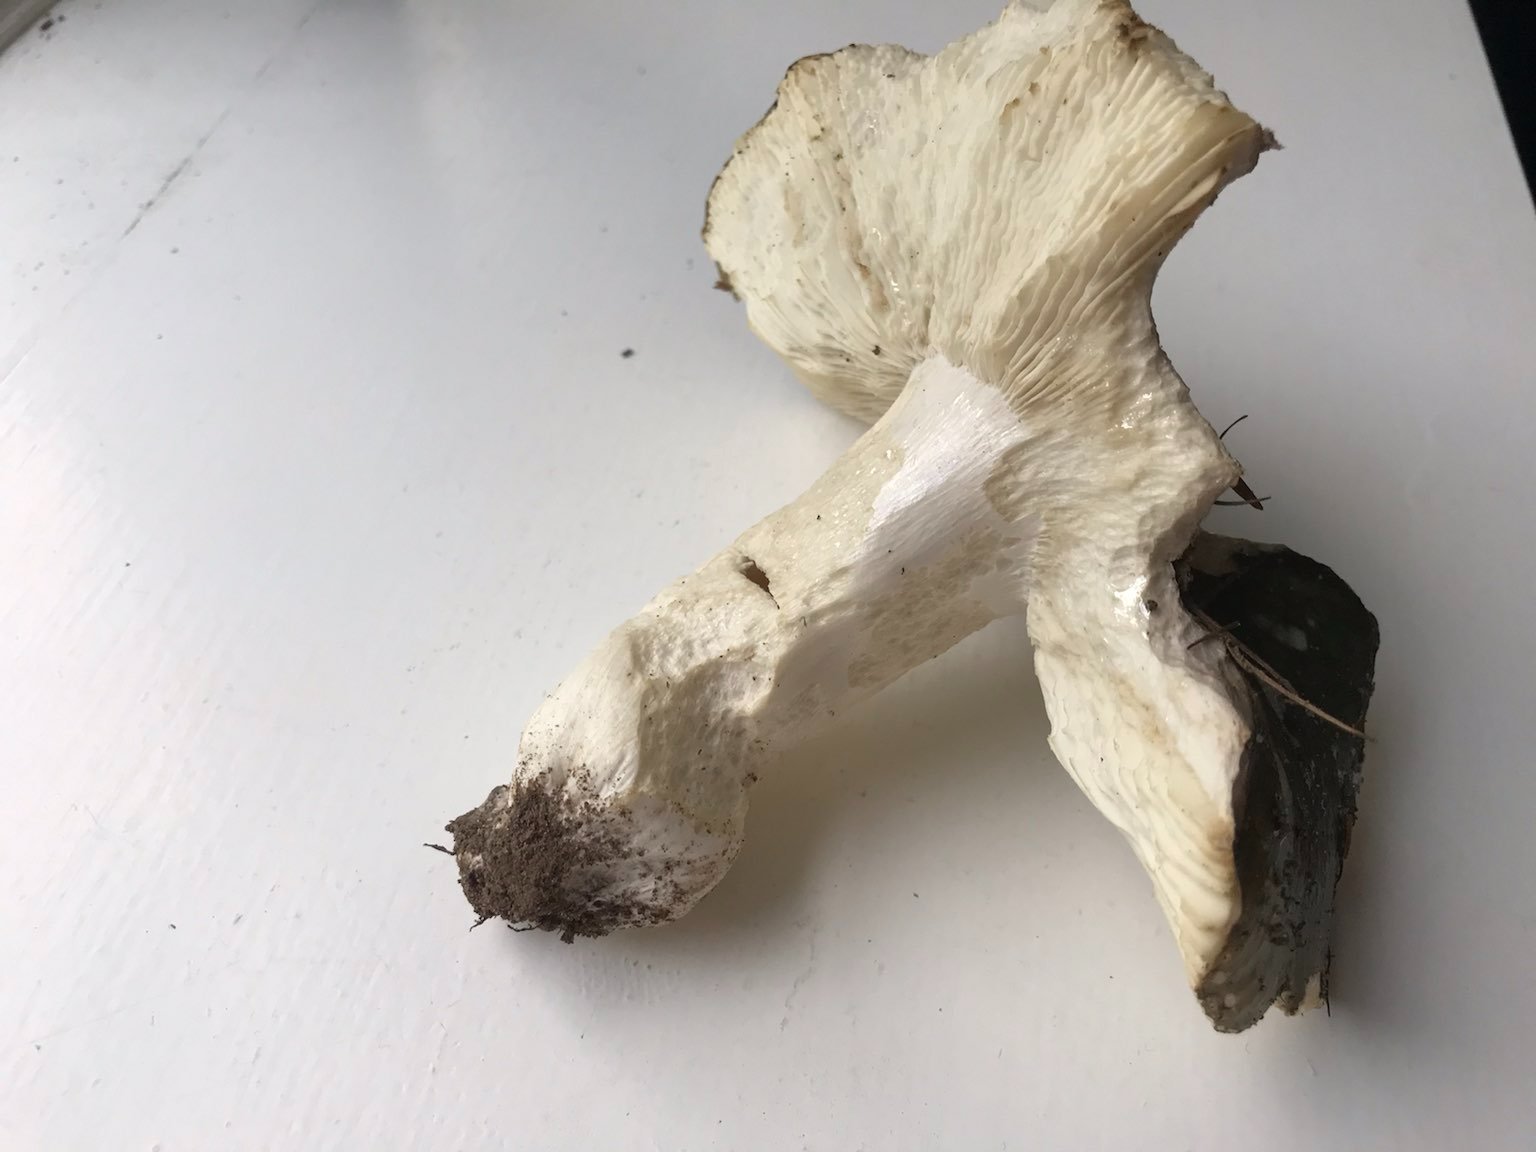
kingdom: Fungi
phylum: Basidiomycota
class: Agaricomycetes
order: Russulales
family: Russulaceae
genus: Russula
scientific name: Russula
